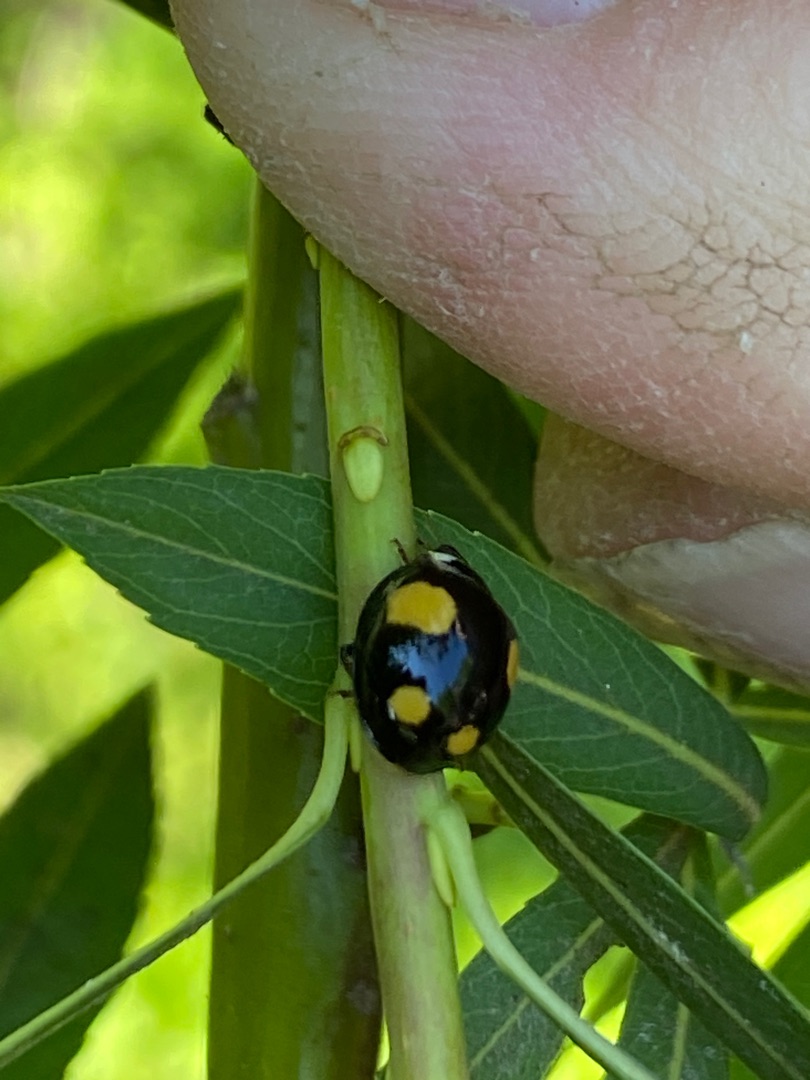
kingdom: Animalia
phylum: Arthropoda
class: Insecta
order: Coleoptera
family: Coccinellidae
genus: Harmonia
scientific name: Harmonia axyridis
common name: Harlekinmariehøne
